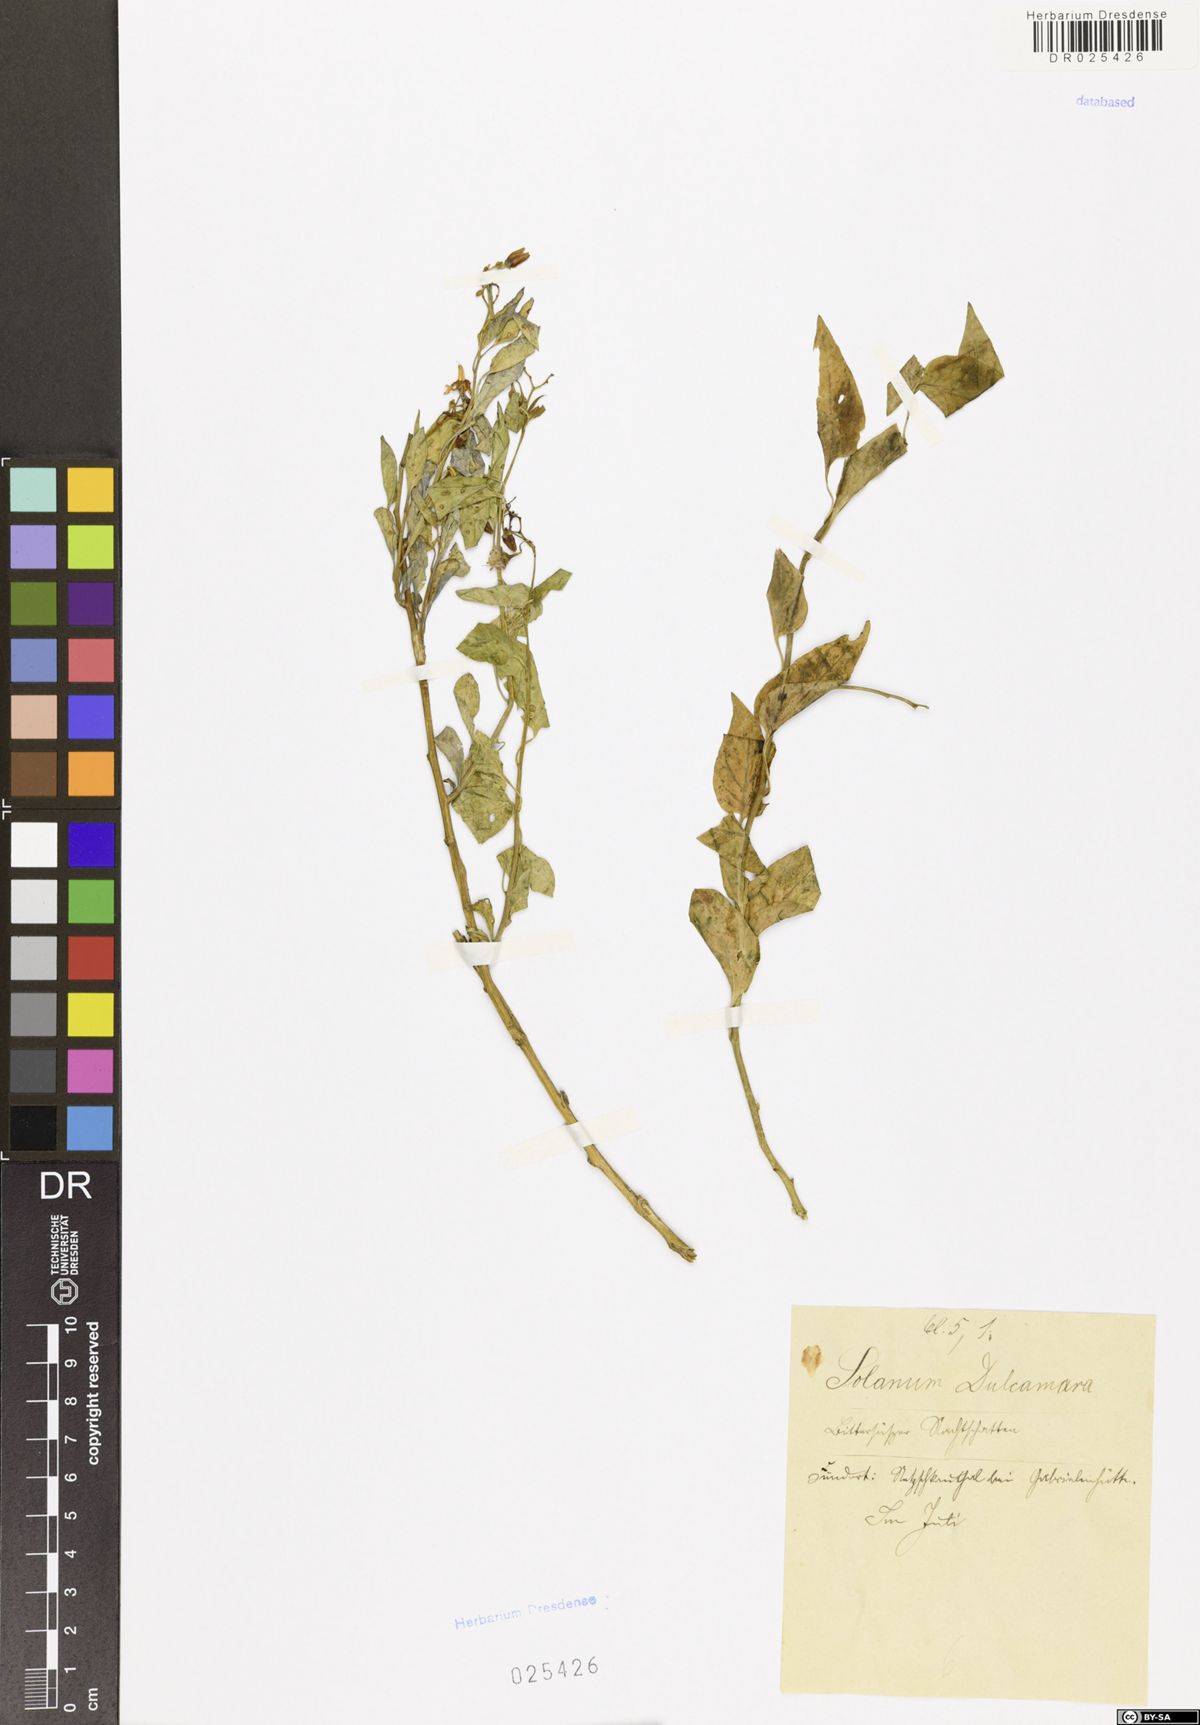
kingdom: Plantae
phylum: Tracheophyta
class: Magnoliopsida
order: Solanales
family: Solanaceae
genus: Solanum
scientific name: Solanum dulcamara
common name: Climbing nightshade
